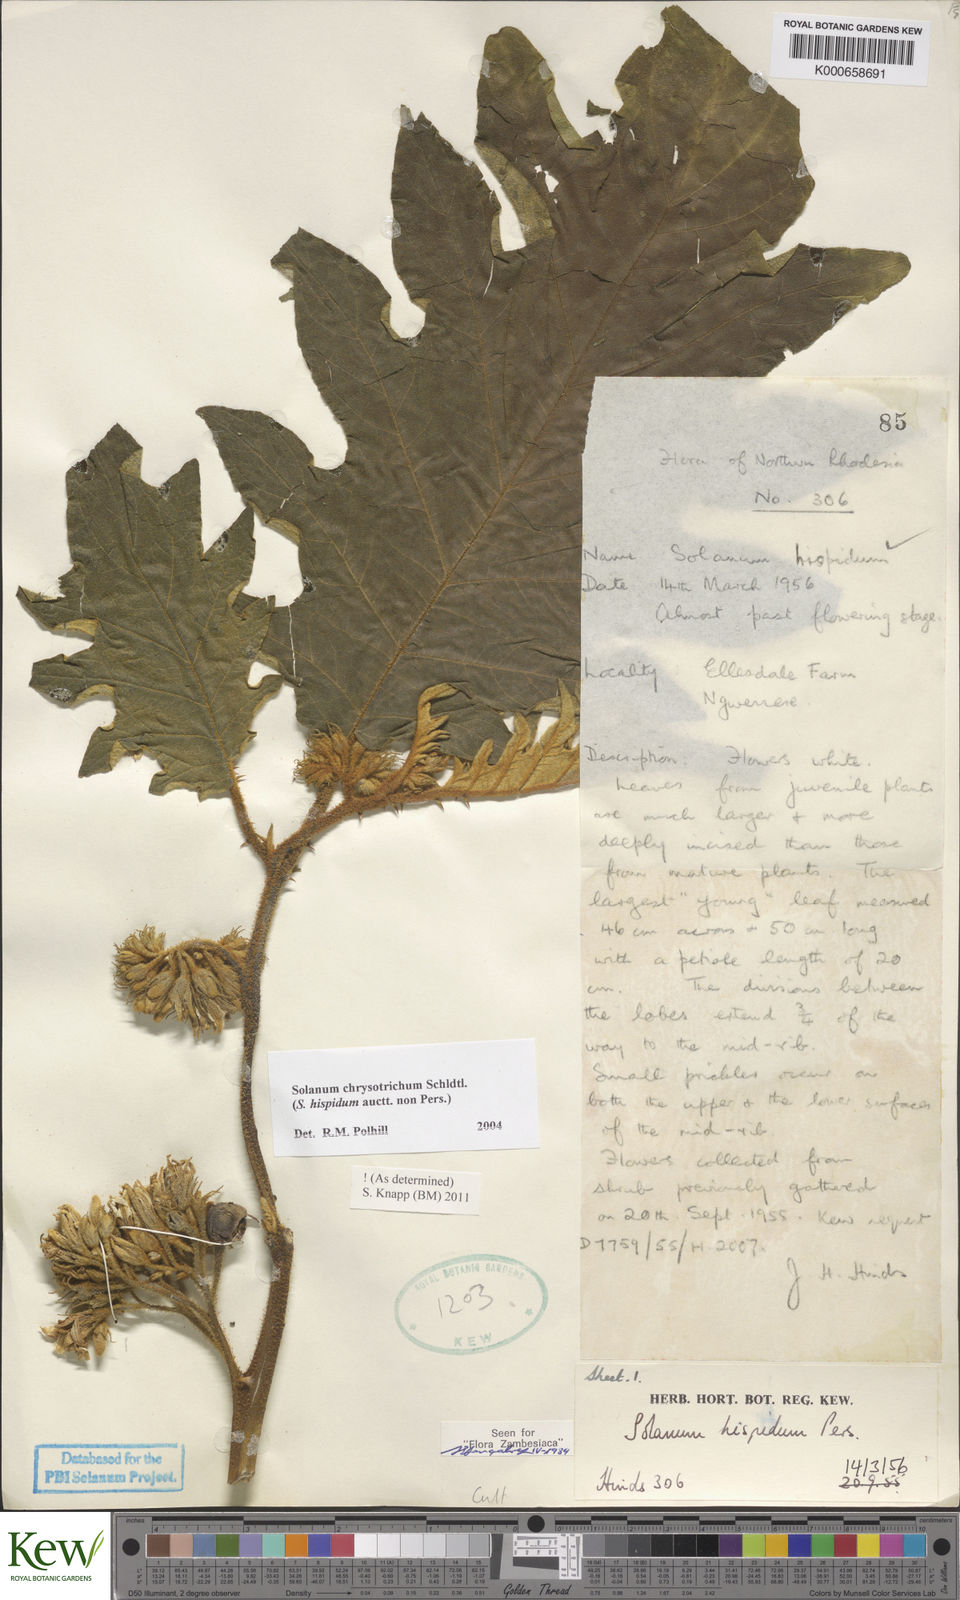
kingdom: Plantae
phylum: Tracheophyta
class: Magnoliopsida
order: Solanales
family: Solanaceae
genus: Solanum
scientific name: Solanum chrysotrichum
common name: Nightshade
